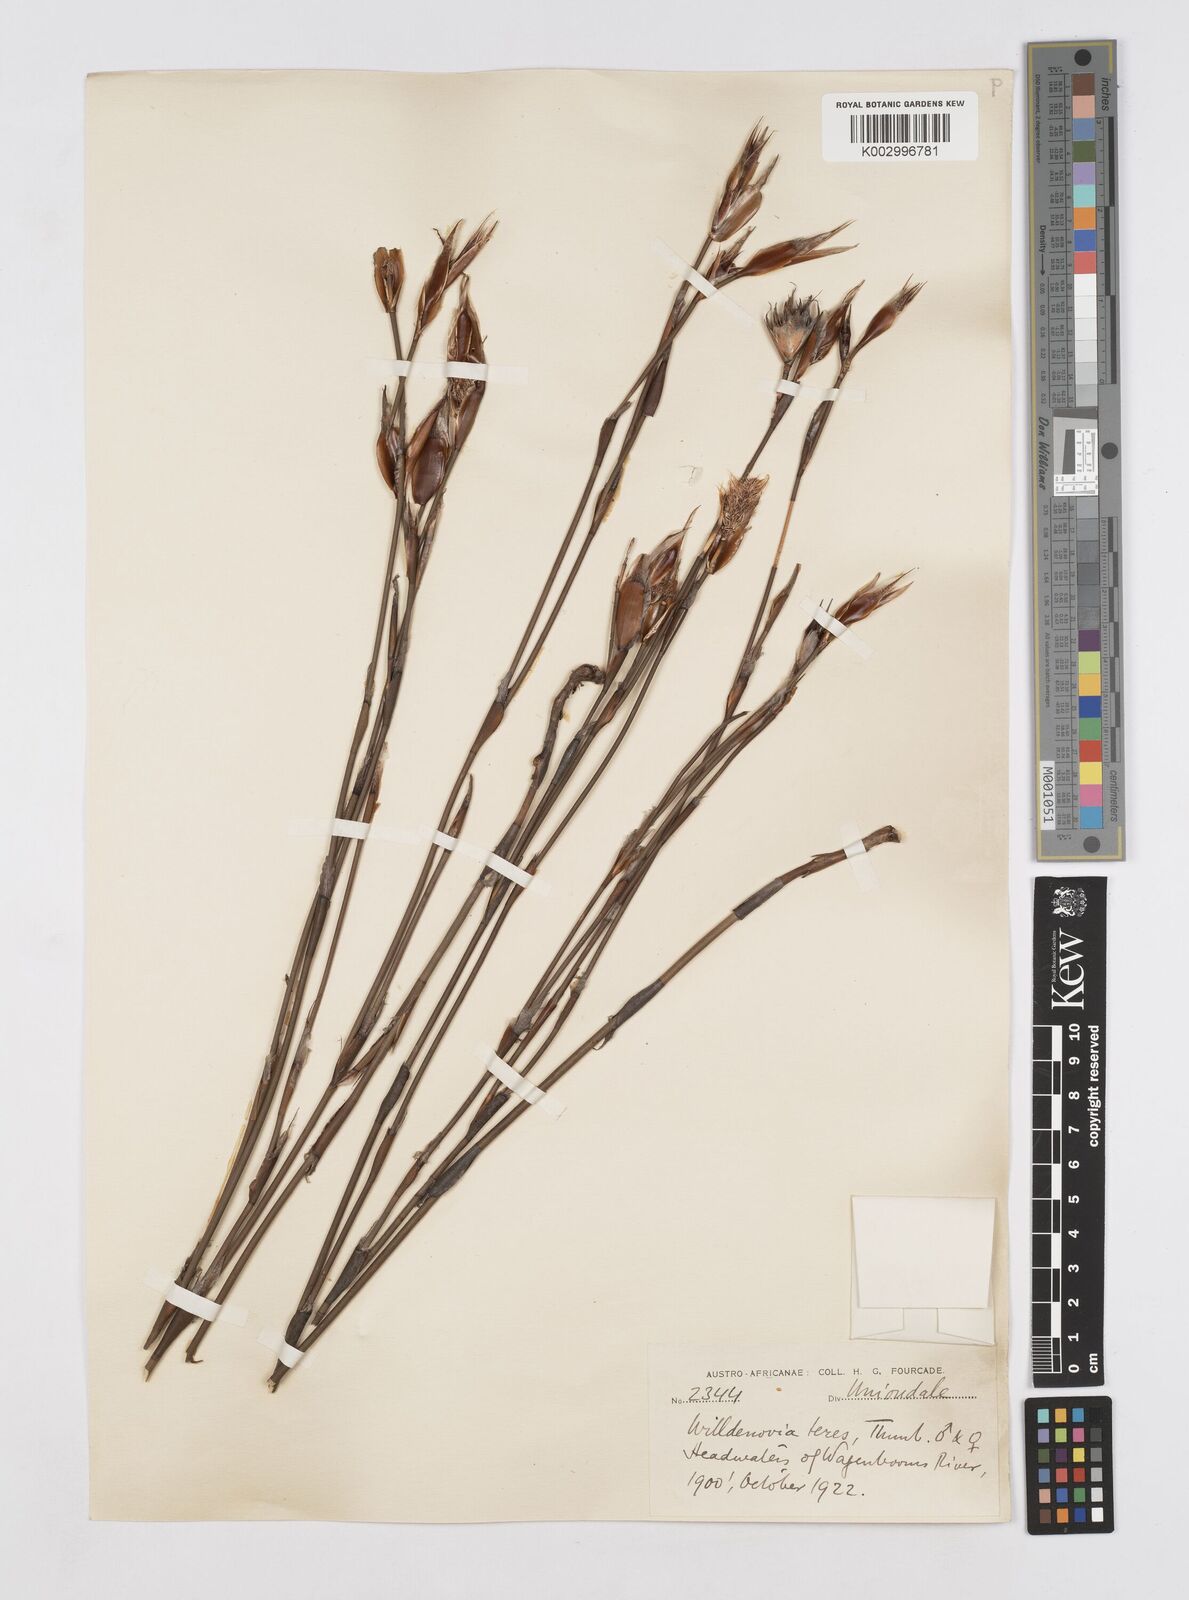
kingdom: Plantae
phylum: Tracheophyta
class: Liliopsida
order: Poales
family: Restionaceae
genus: Willdenowia
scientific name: Willdenowia teres
